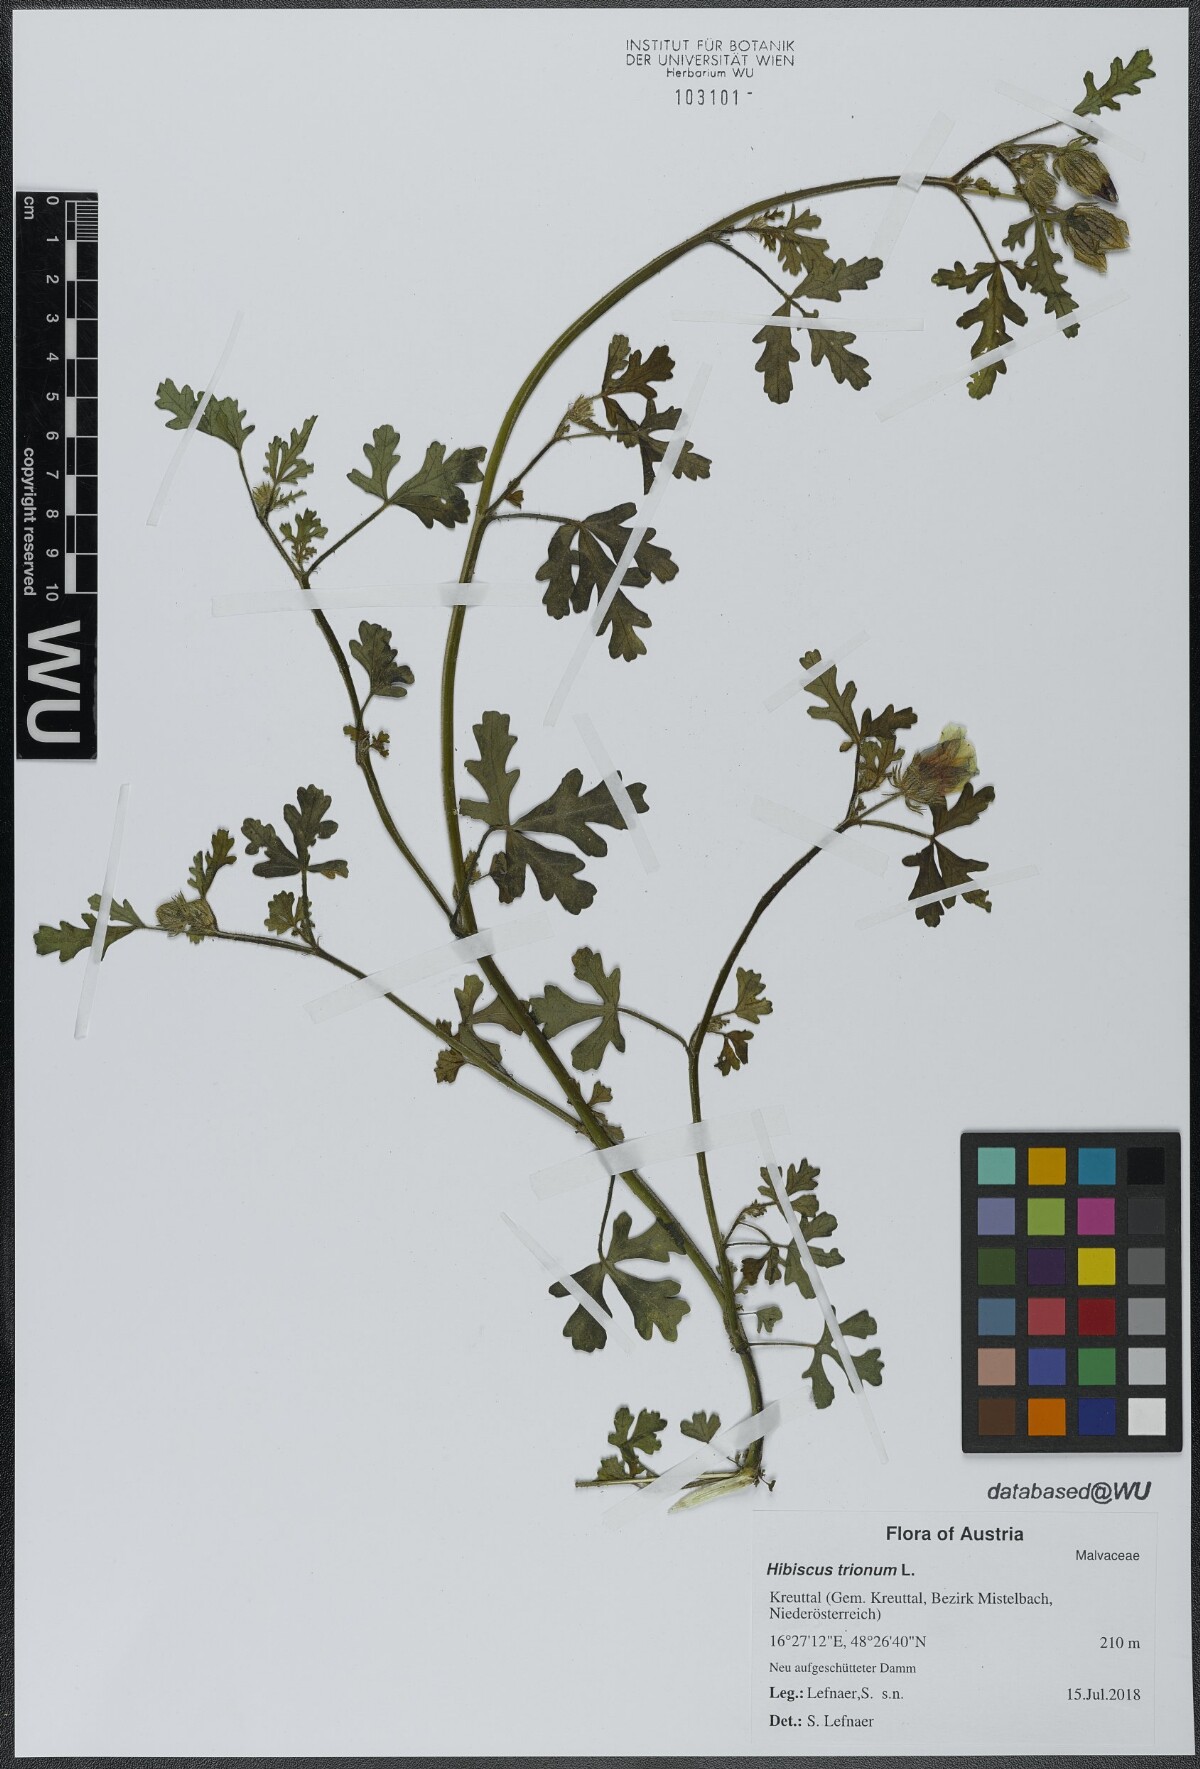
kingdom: Plantae
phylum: Tracheophyta
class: Magnoliopsida
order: Malvales
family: Malvaceae
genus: Hibiscus
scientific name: Hibiscus trionum
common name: Bladder ketmia
